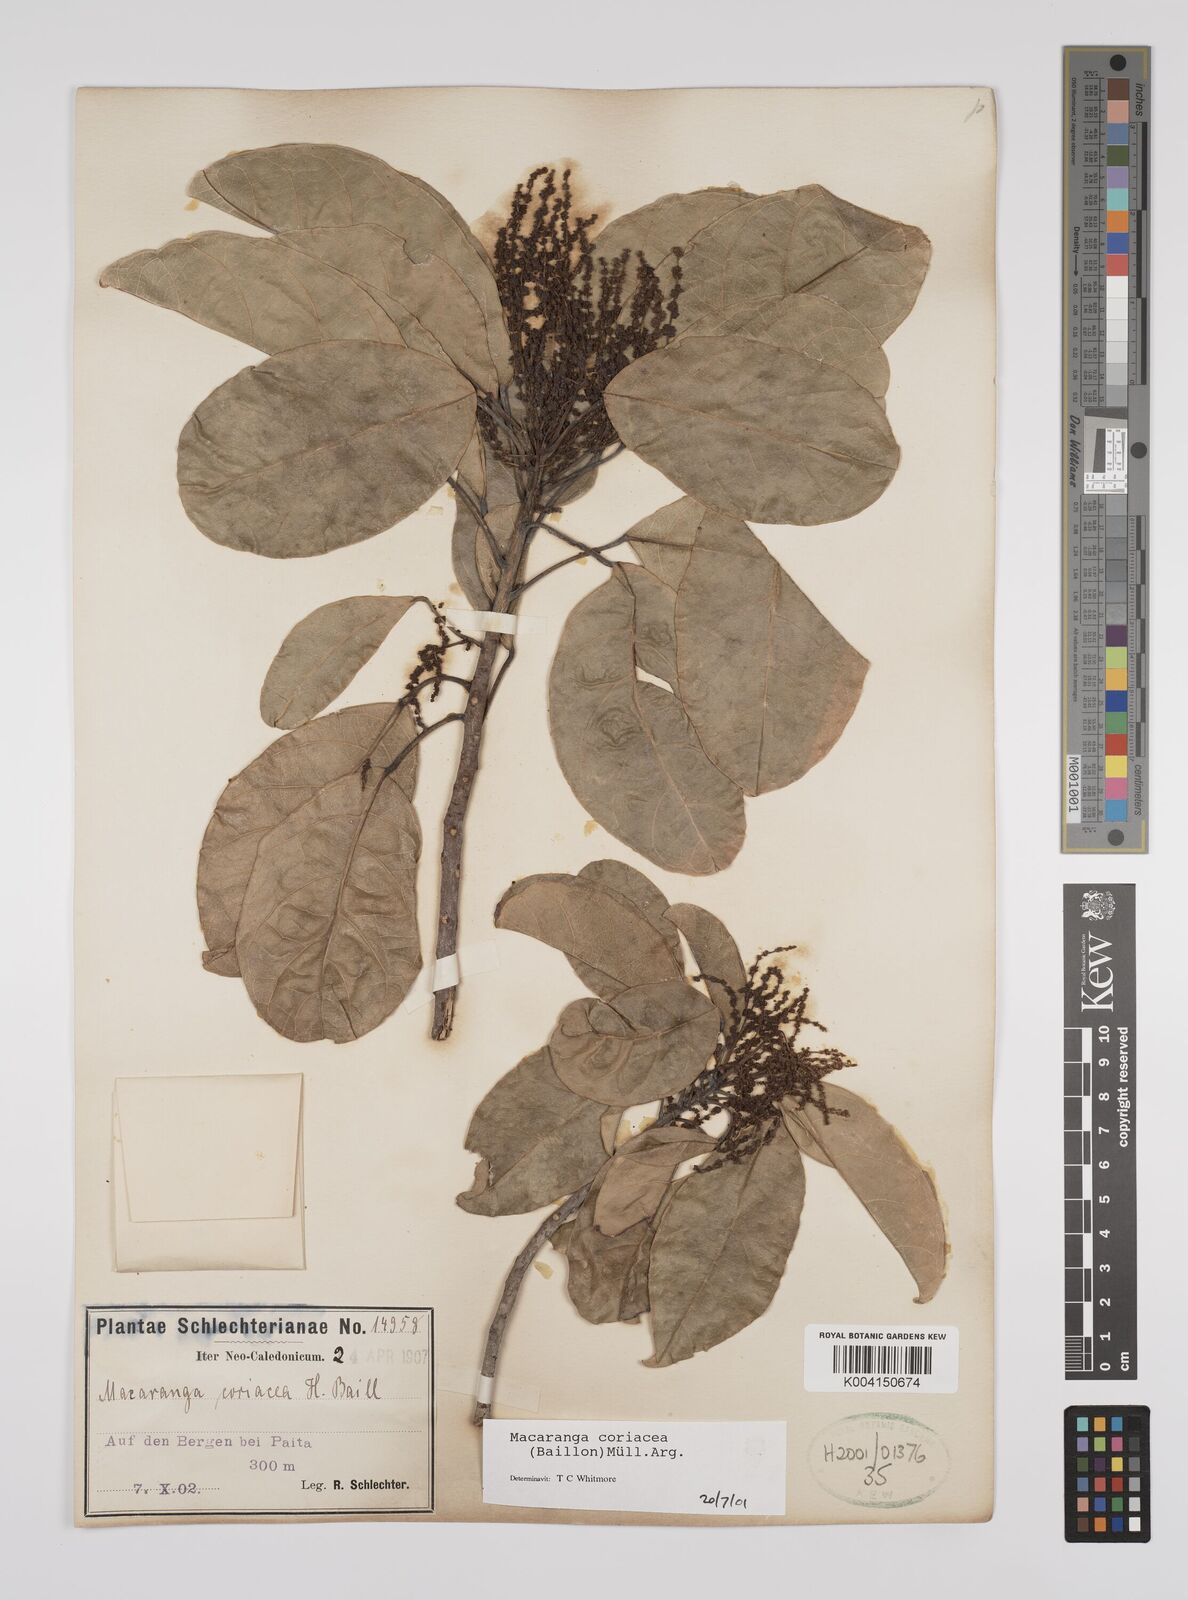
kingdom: Plantae
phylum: Tracheophyta
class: Magnoliopsida
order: Malpighiales
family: Euphorbiaceae
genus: Macaranga
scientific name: Macaranga coriacea
